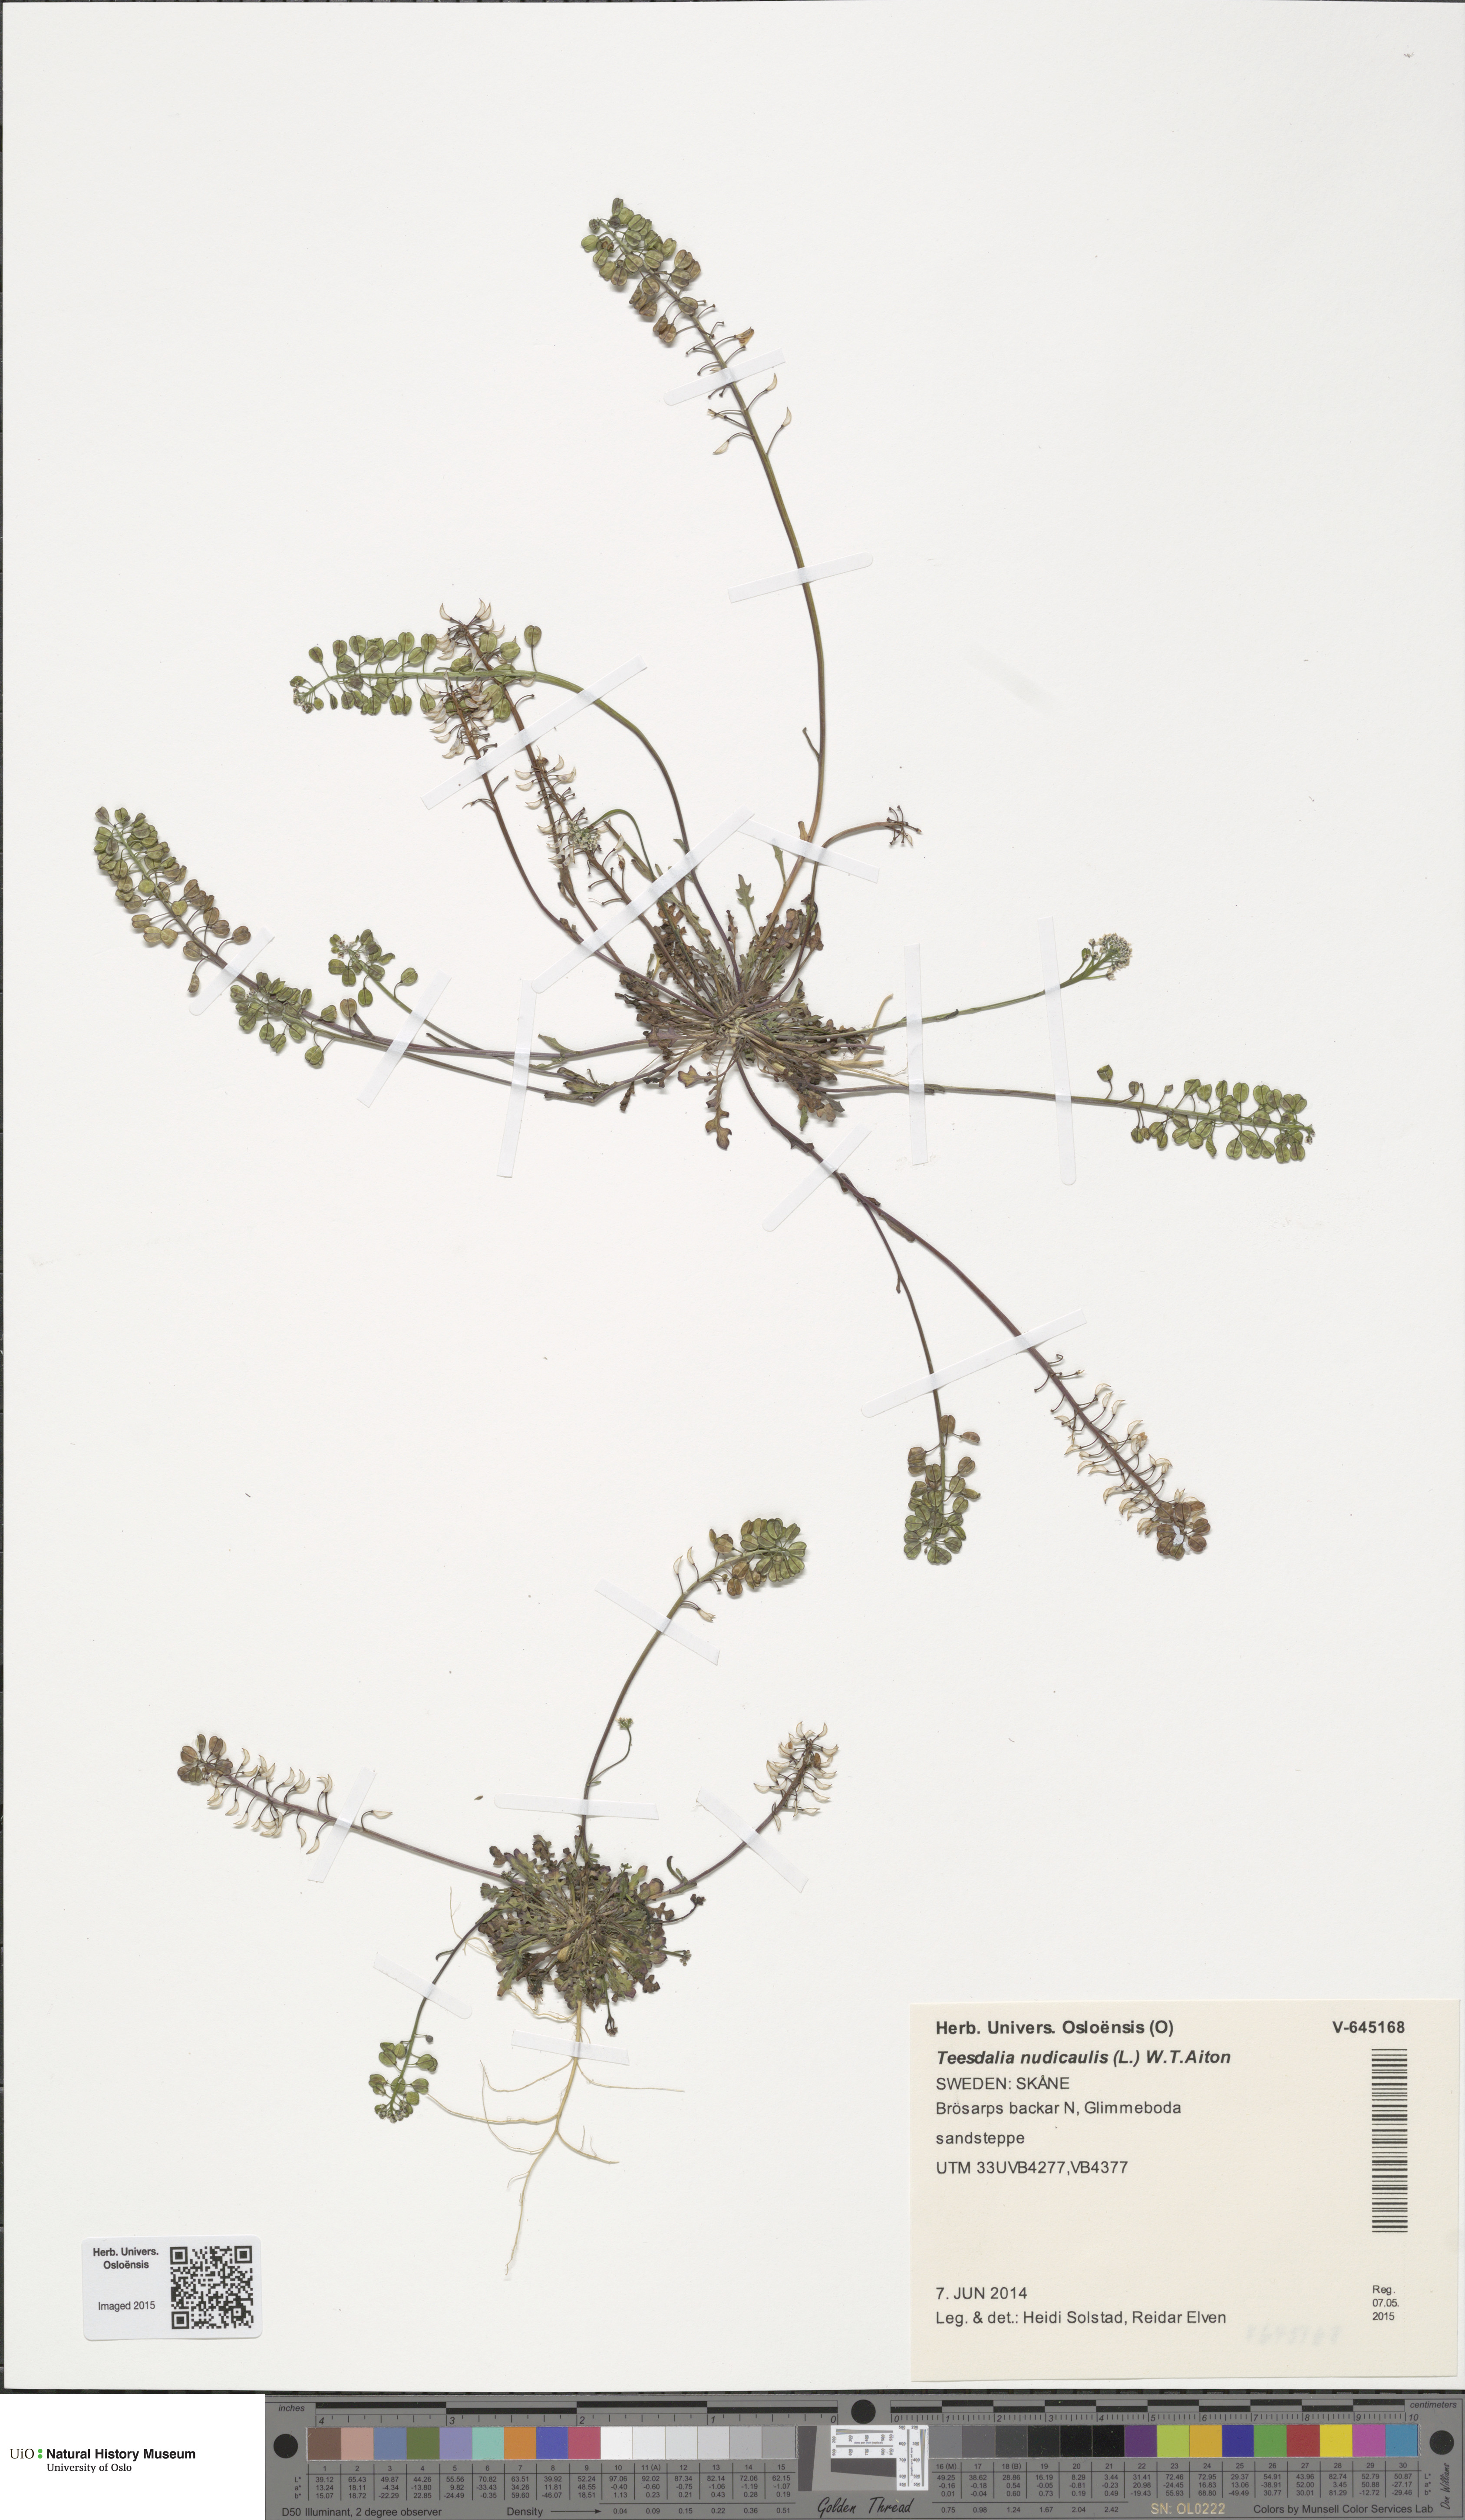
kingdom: Plantae
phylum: Tracheophyta
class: Magnoliopsida
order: Brassicales
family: Brassicaceae
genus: Teesdalia
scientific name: Teesdalia nudicaulis
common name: Shepherd's cress
